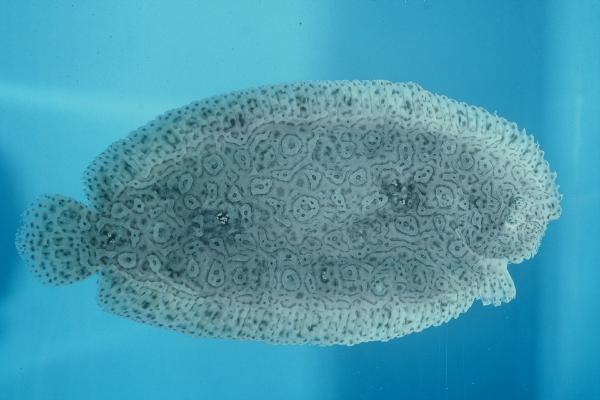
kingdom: Animalia
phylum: Chordata
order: Pleuronectiformes
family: Soleidae
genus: Pardachirus
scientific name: Pardachirus marmoratus
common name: Finless sole
